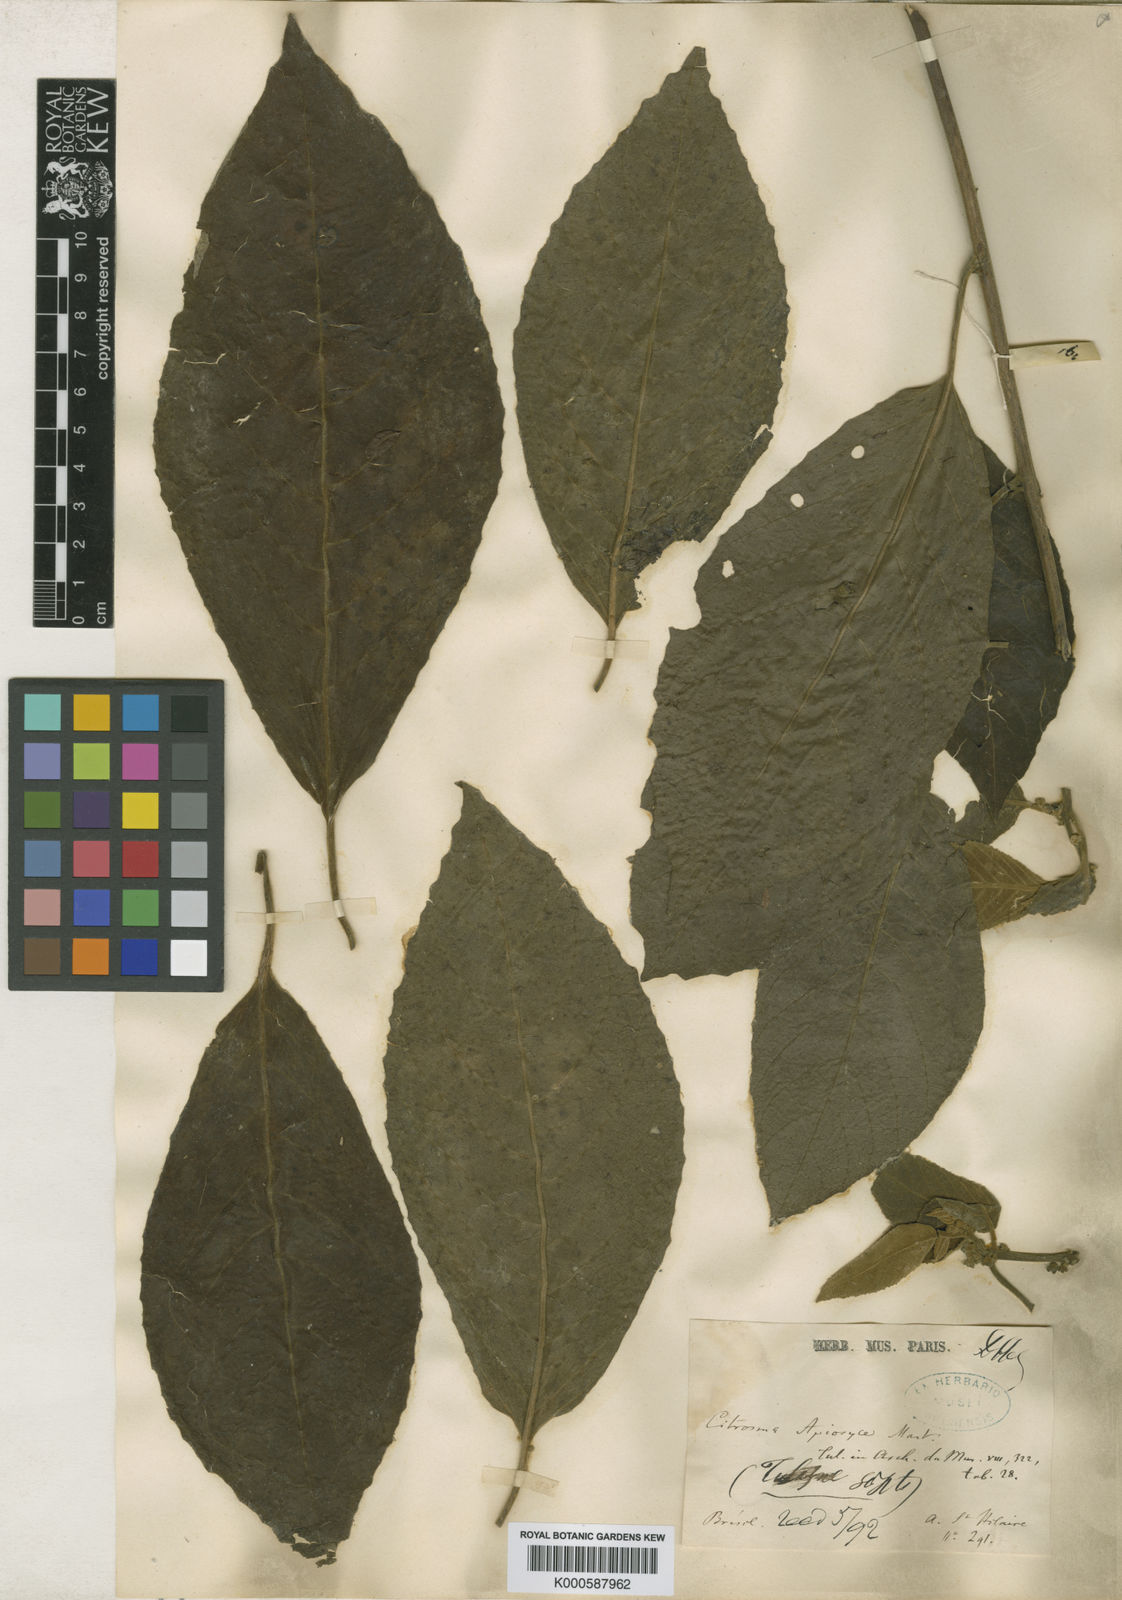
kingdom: Plantae
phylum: Tracheophyta
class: Magnoliopsida
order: Laurales
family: Siparunaceae
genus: Siparuna
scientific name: Siparuna brasiliensis
